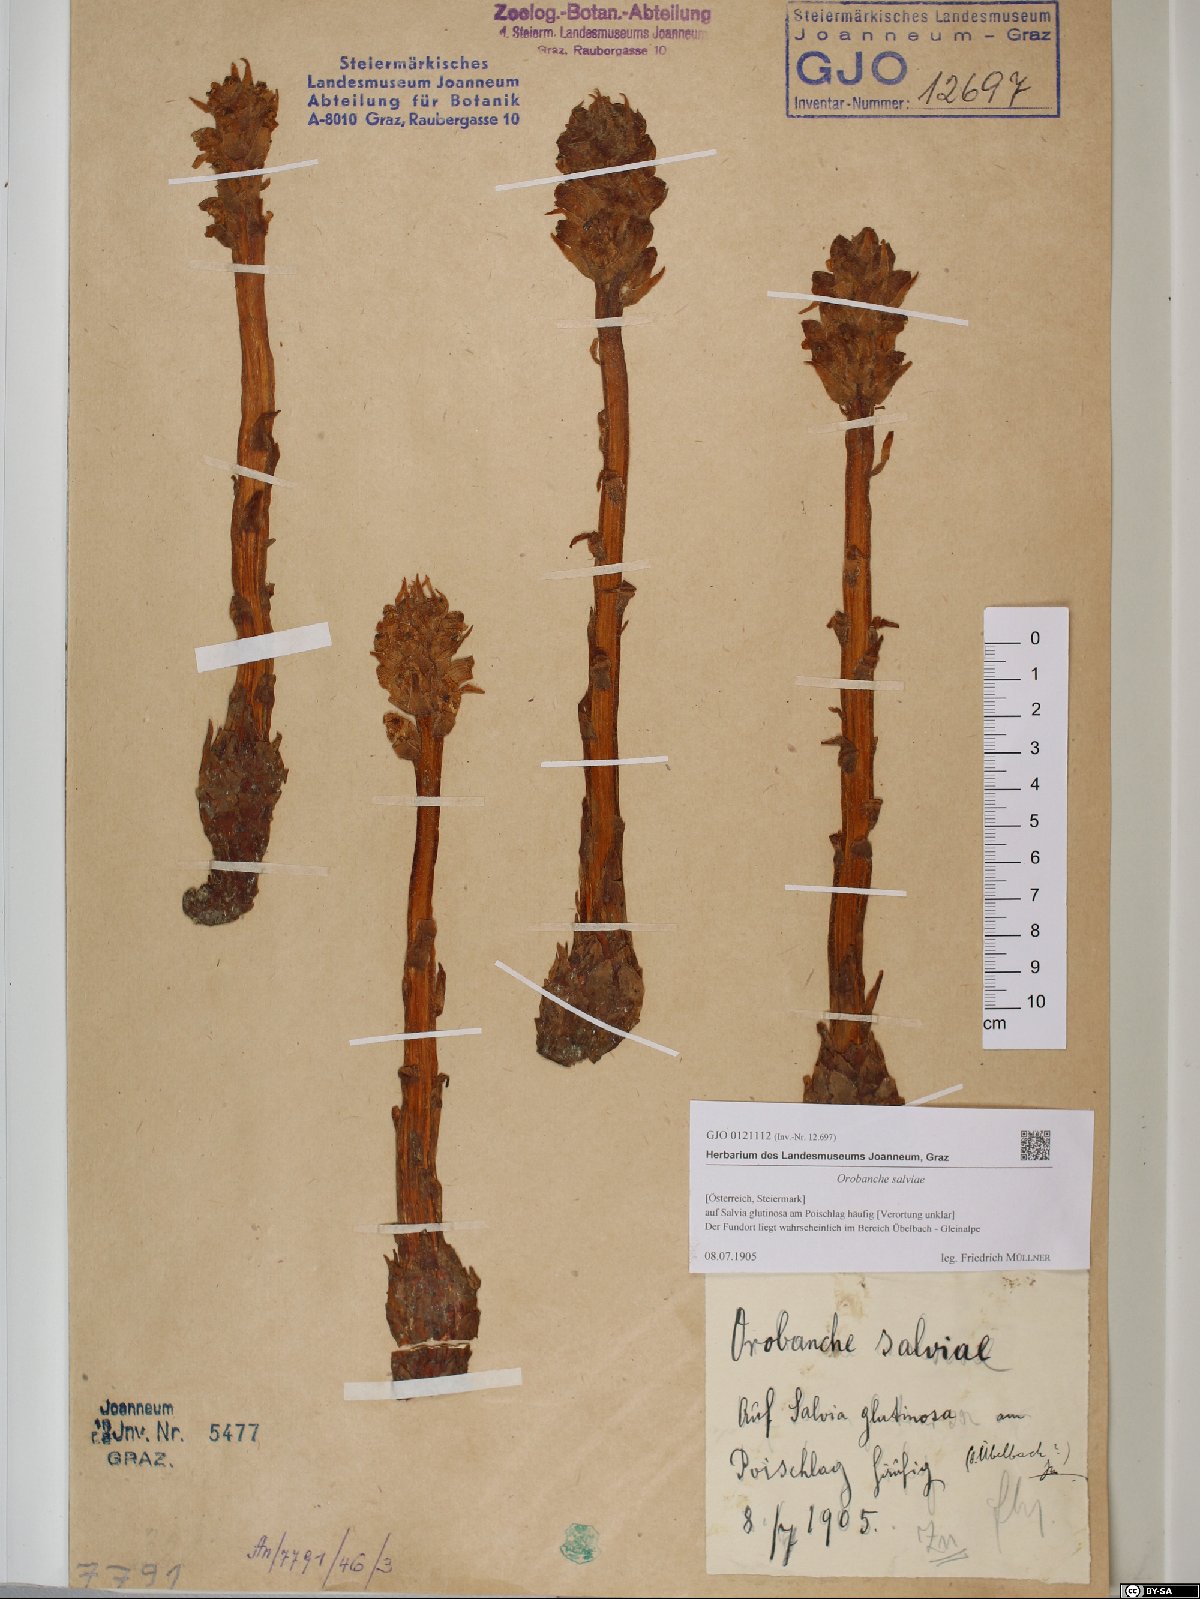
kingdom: Plantae
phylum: Tracheophyta
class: Magnoliopsida
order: Lamiales
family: Orobanchaceae
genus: Orobanche
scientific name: Orobanche salviae
